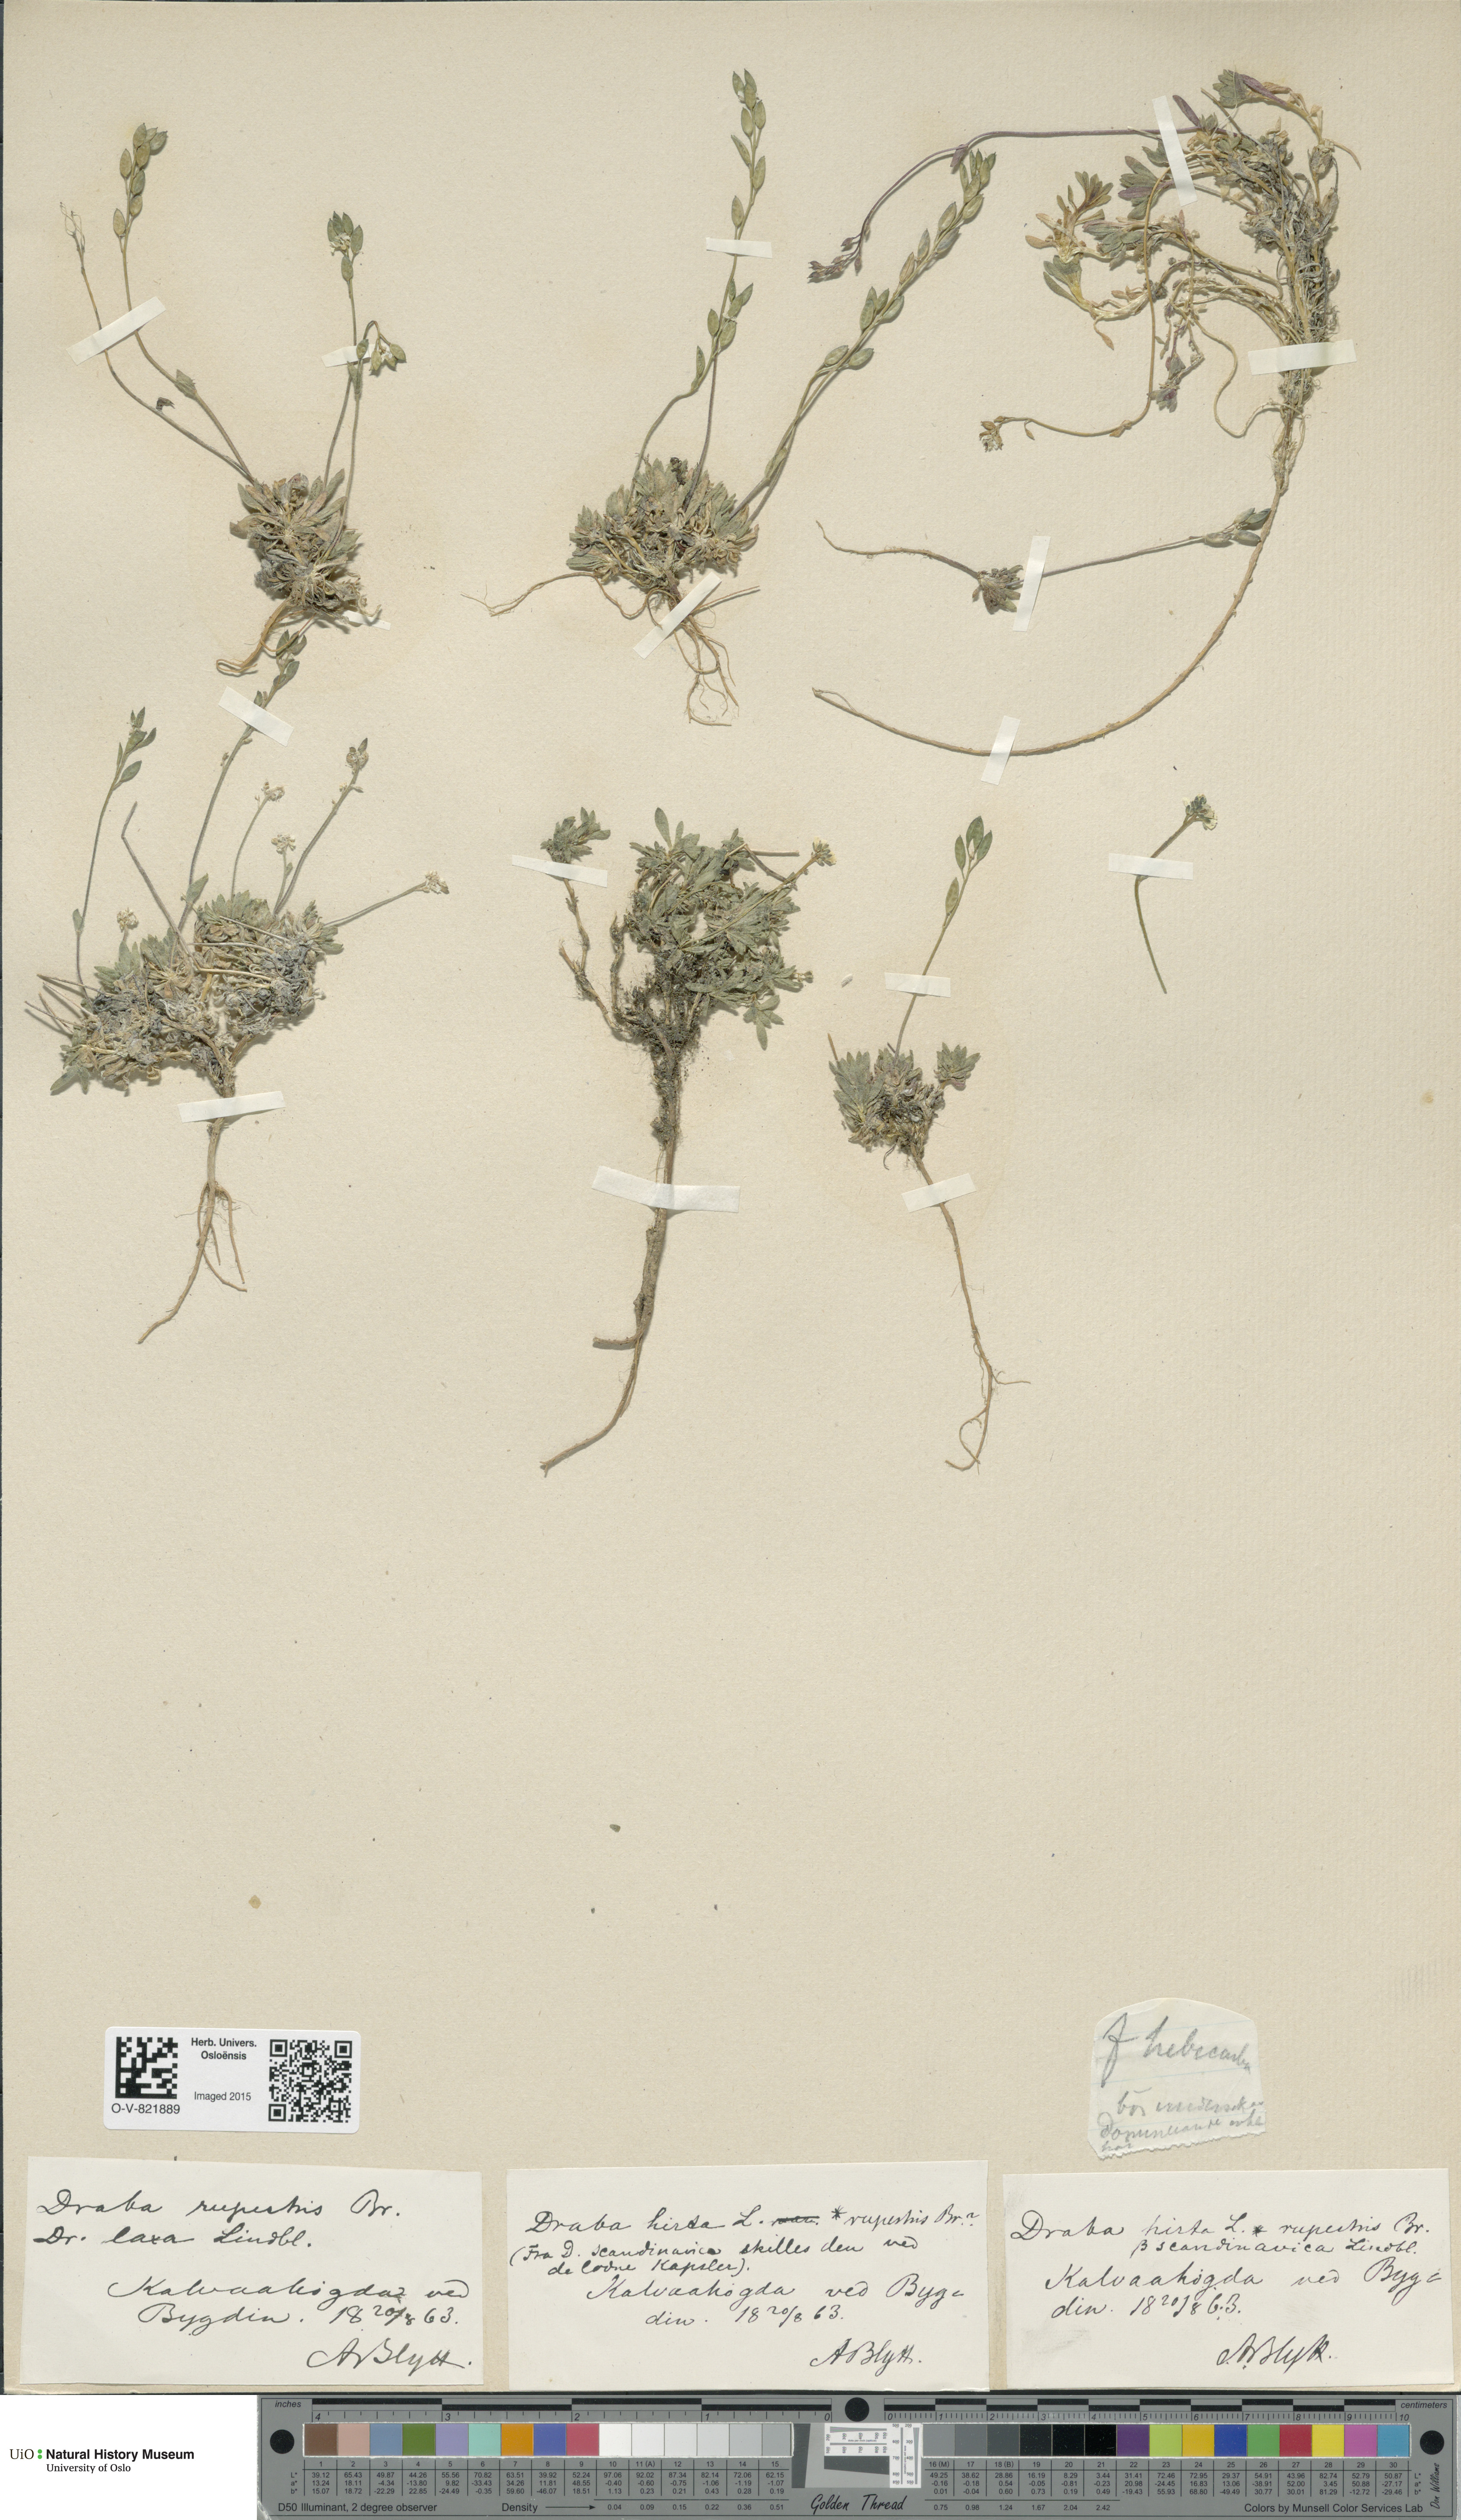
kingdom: Plantae
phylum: Tracheophyta
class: Magnoliopsida
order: Brassicales
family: Brassicaceae
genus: Draba
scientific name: Draba norvegica
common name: Rock whitlowgrass
